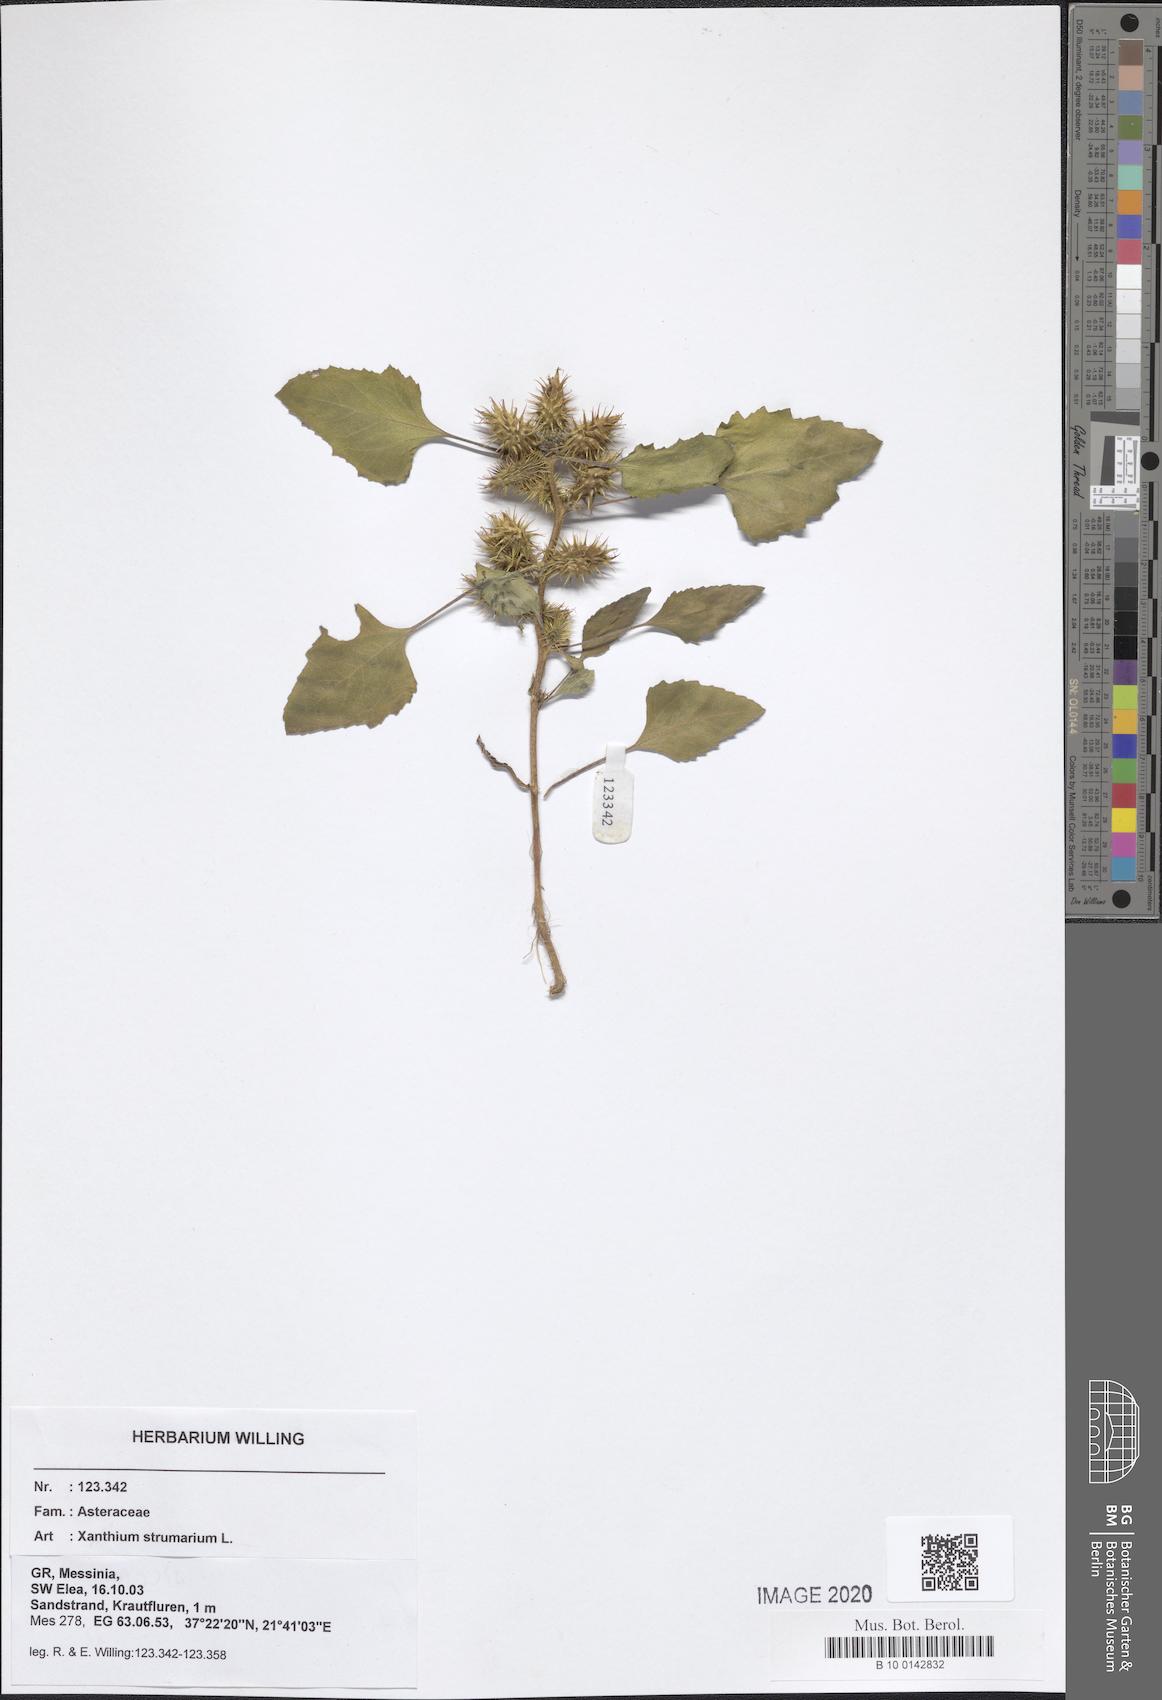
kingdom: Plantae
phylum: Tracheophyta
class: Magnoliopsida
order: Asterales
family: Asteraceae
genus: Xanthium
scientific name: Xanthium strumarium
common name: Rough cocklebur
